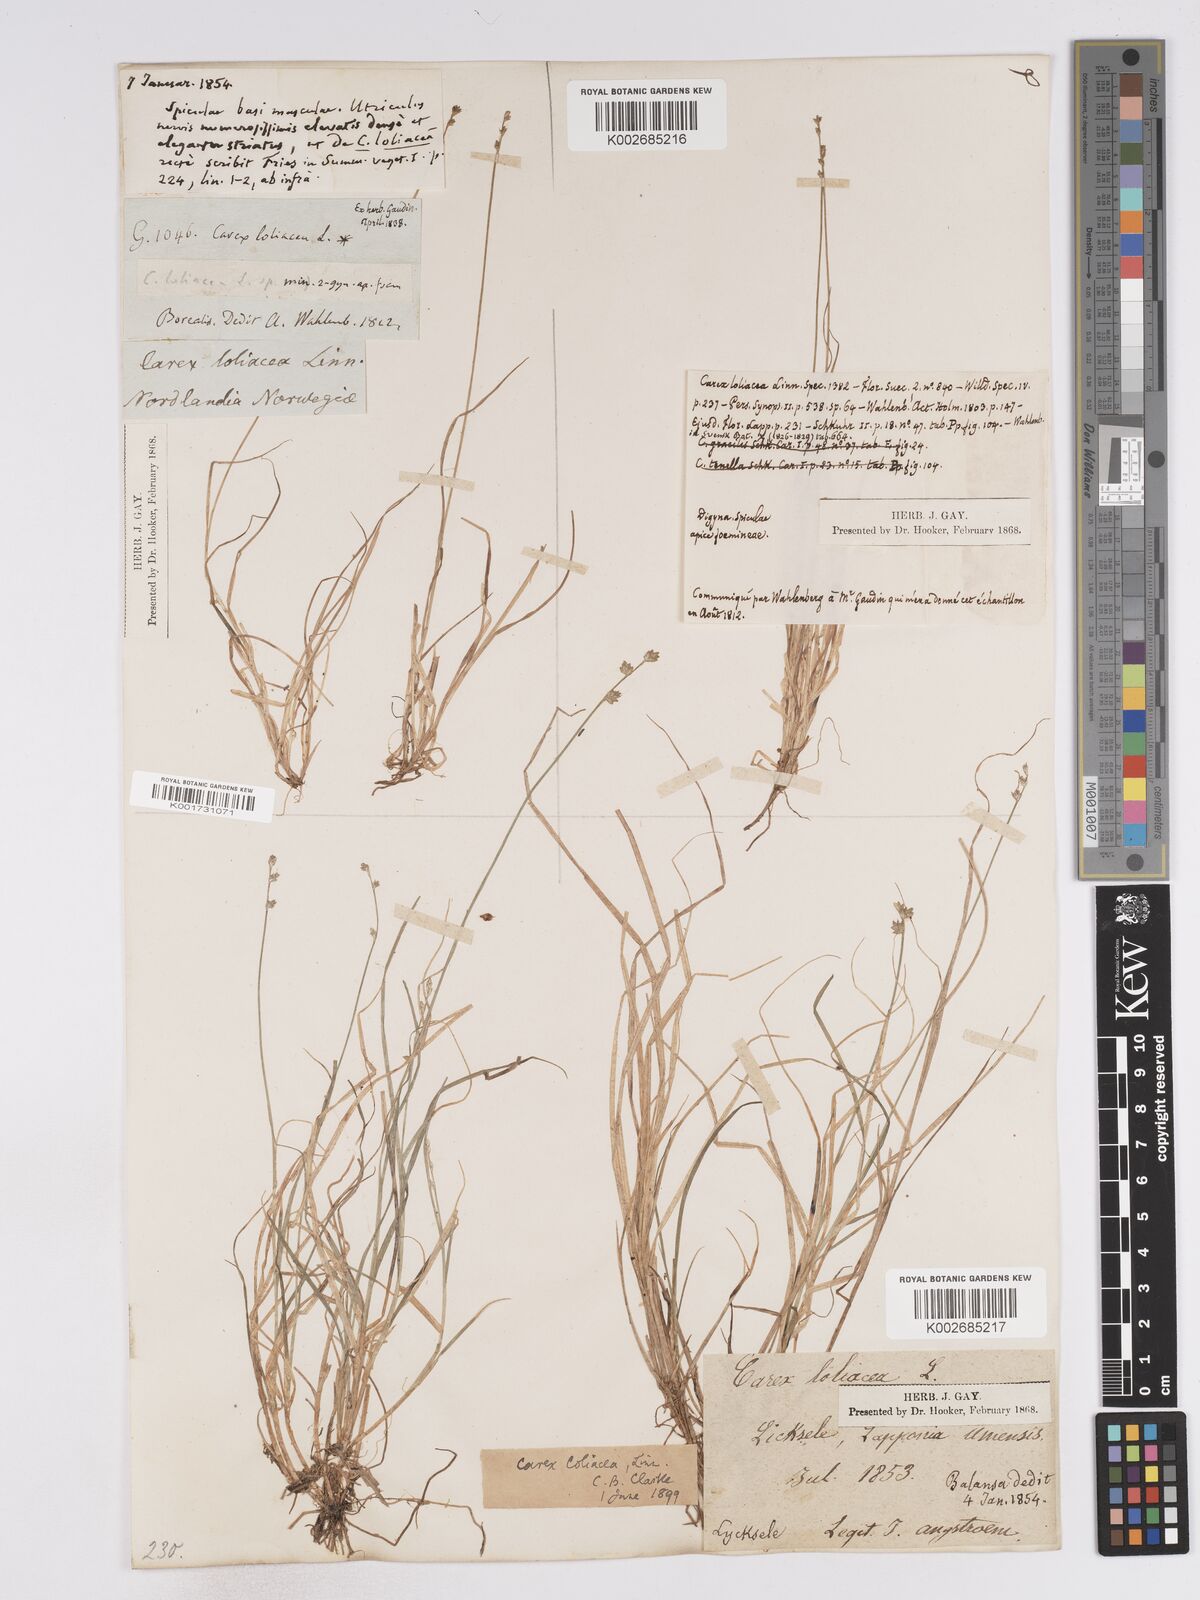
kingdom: Plantae
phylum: Tracheophyta
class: Liliopsida
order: Poales
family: Cyperaceae
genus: Carex
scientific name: Carex loliacea
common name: Ryegrass sedge
